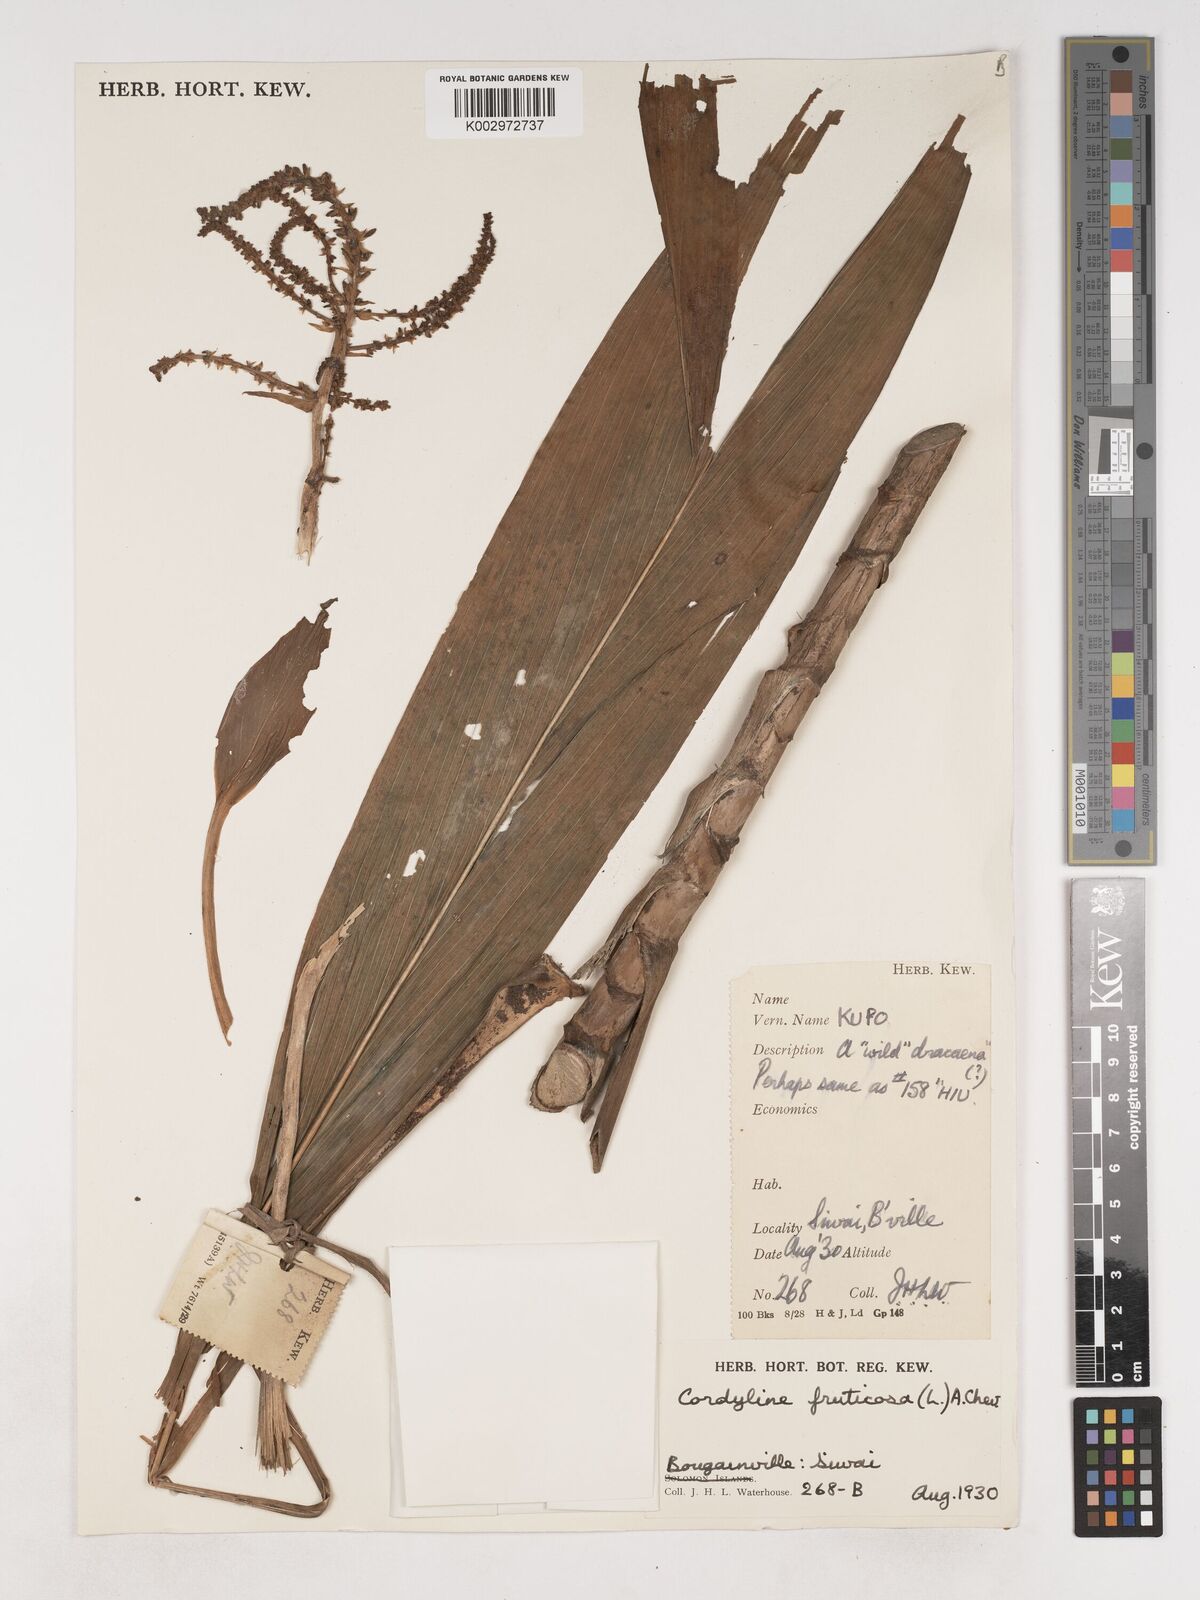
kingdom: Plantae
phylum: Tracheophyta
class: Liliopsida
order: Asparagales
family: Asparagaceae
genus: Cordyline
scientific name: Cordyline fruticosa
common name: Good-luck-plant
